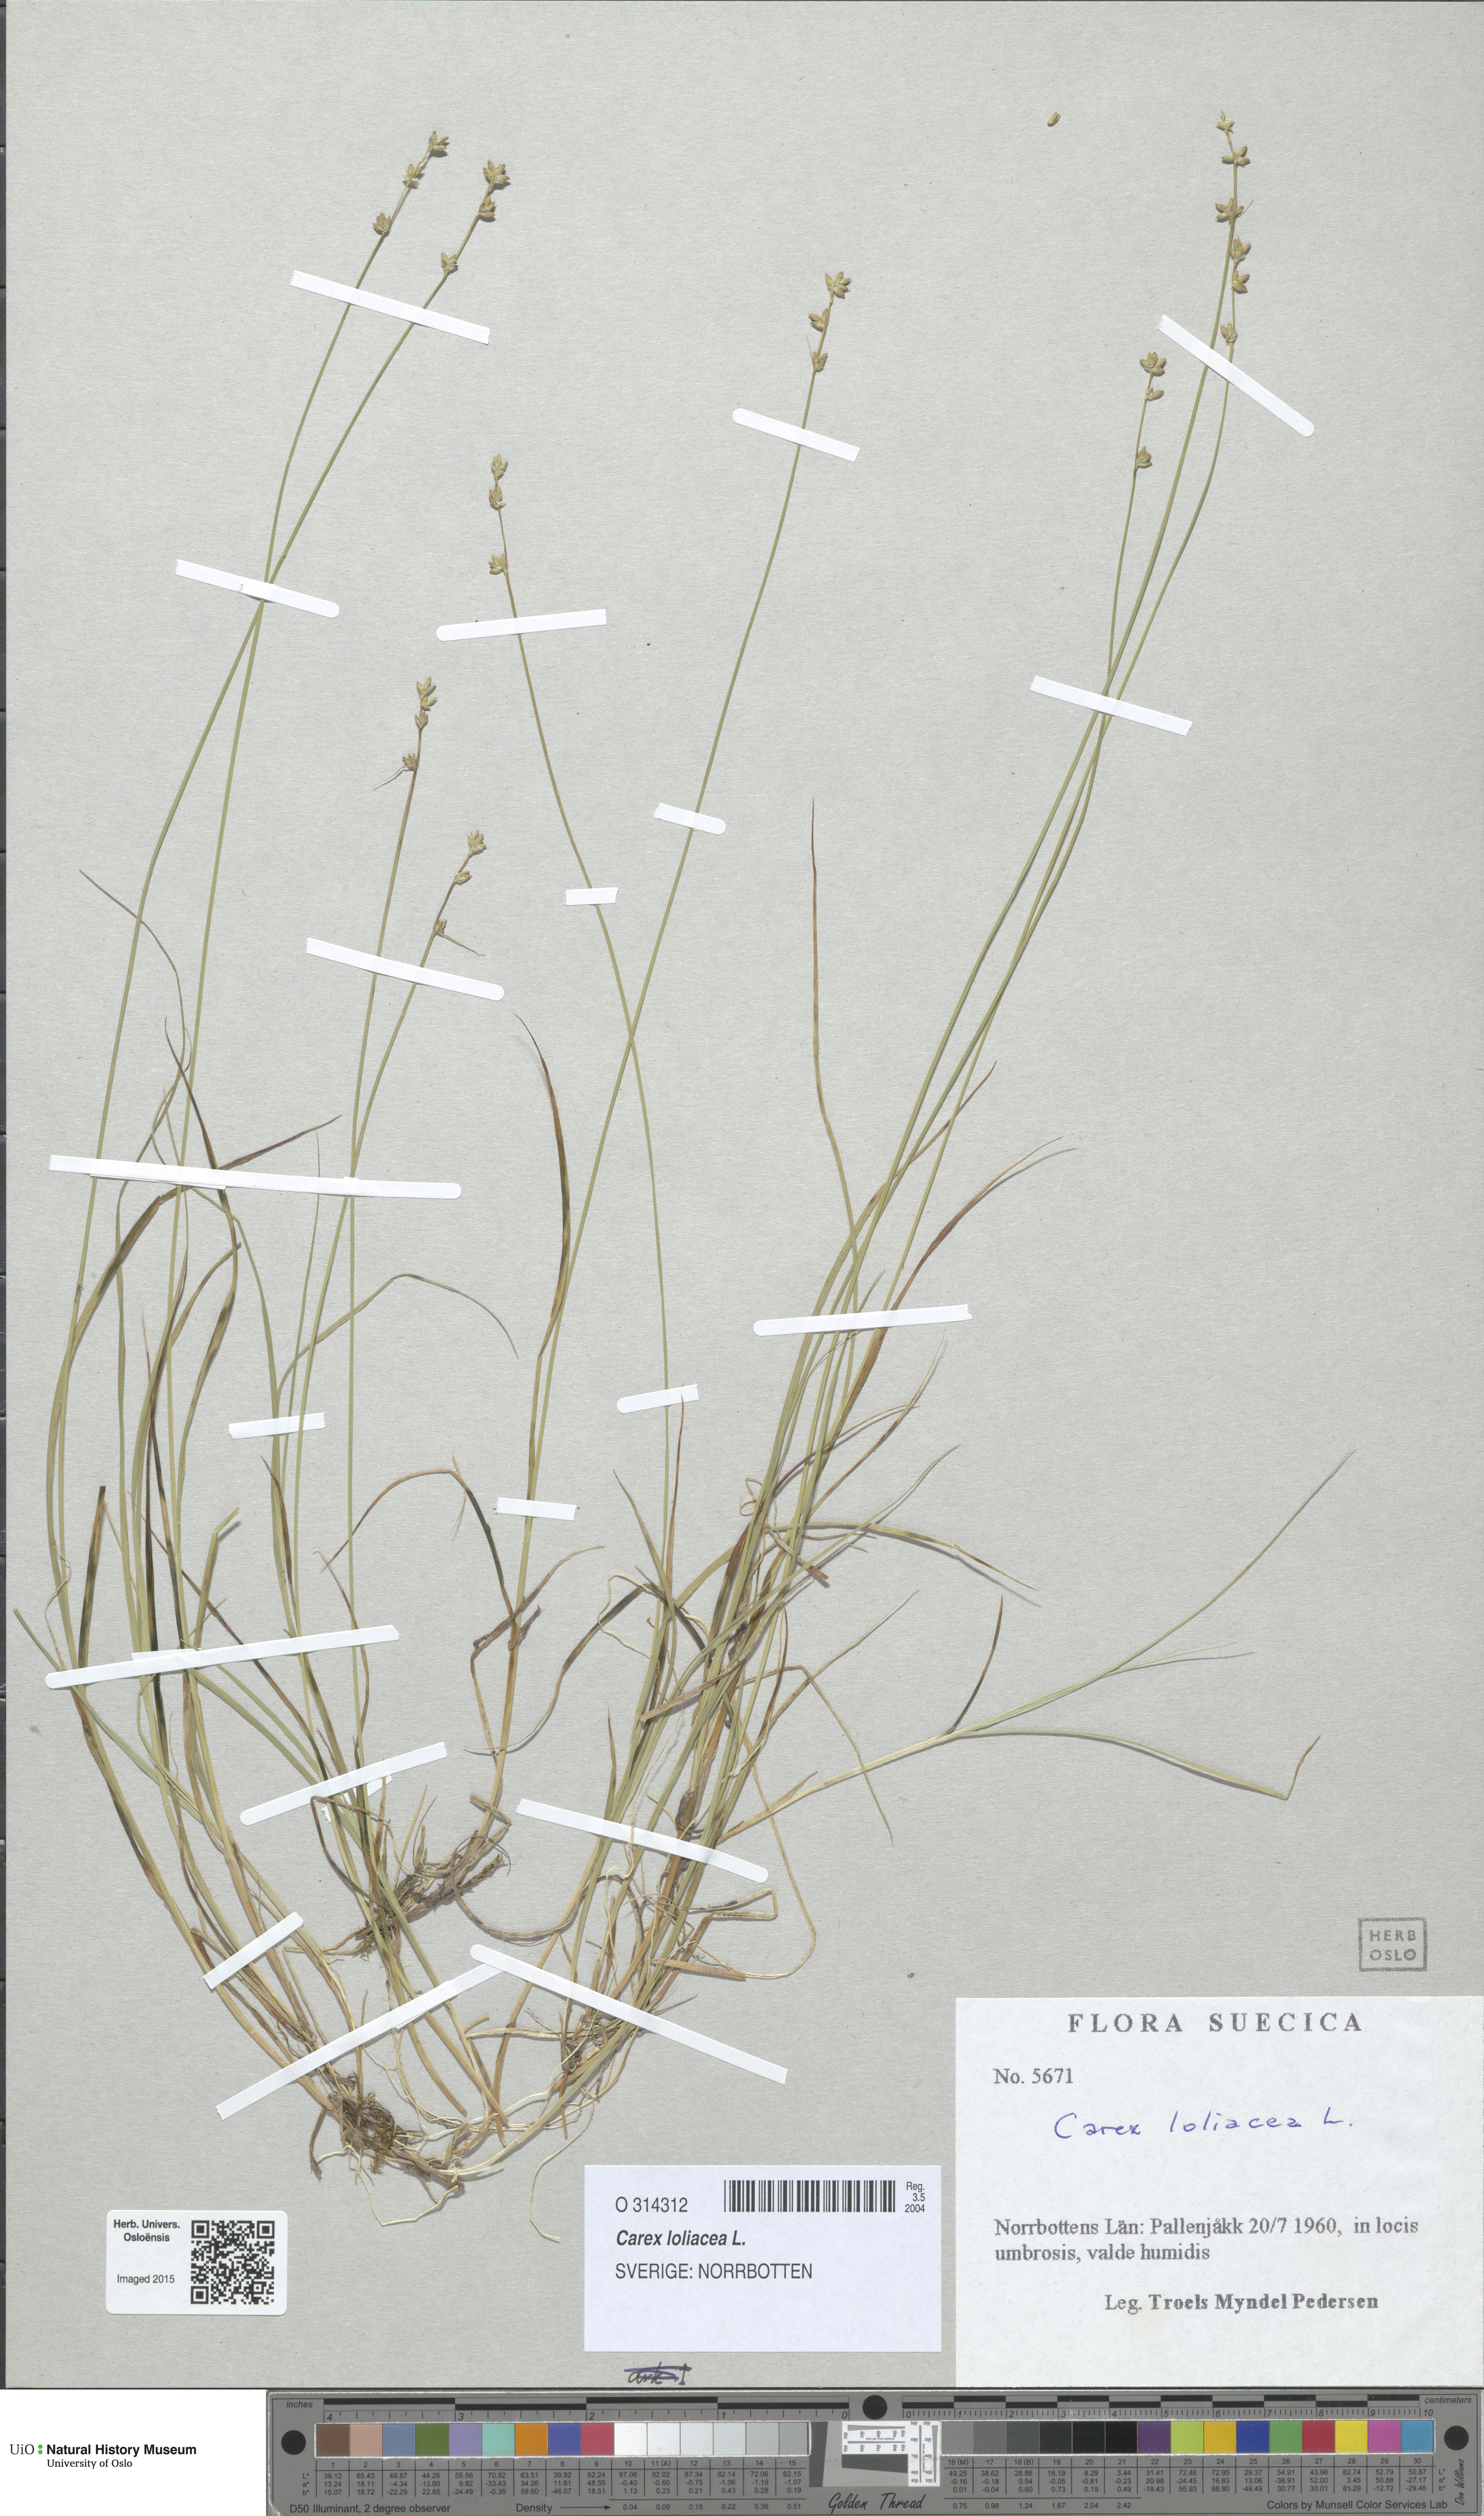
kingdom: Plantae
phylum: Tracheophyta
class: Liliopsida
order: Poales
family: Cyperaceae
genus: Carex
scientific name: Carex loliacea
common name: Ryegrass sedge
